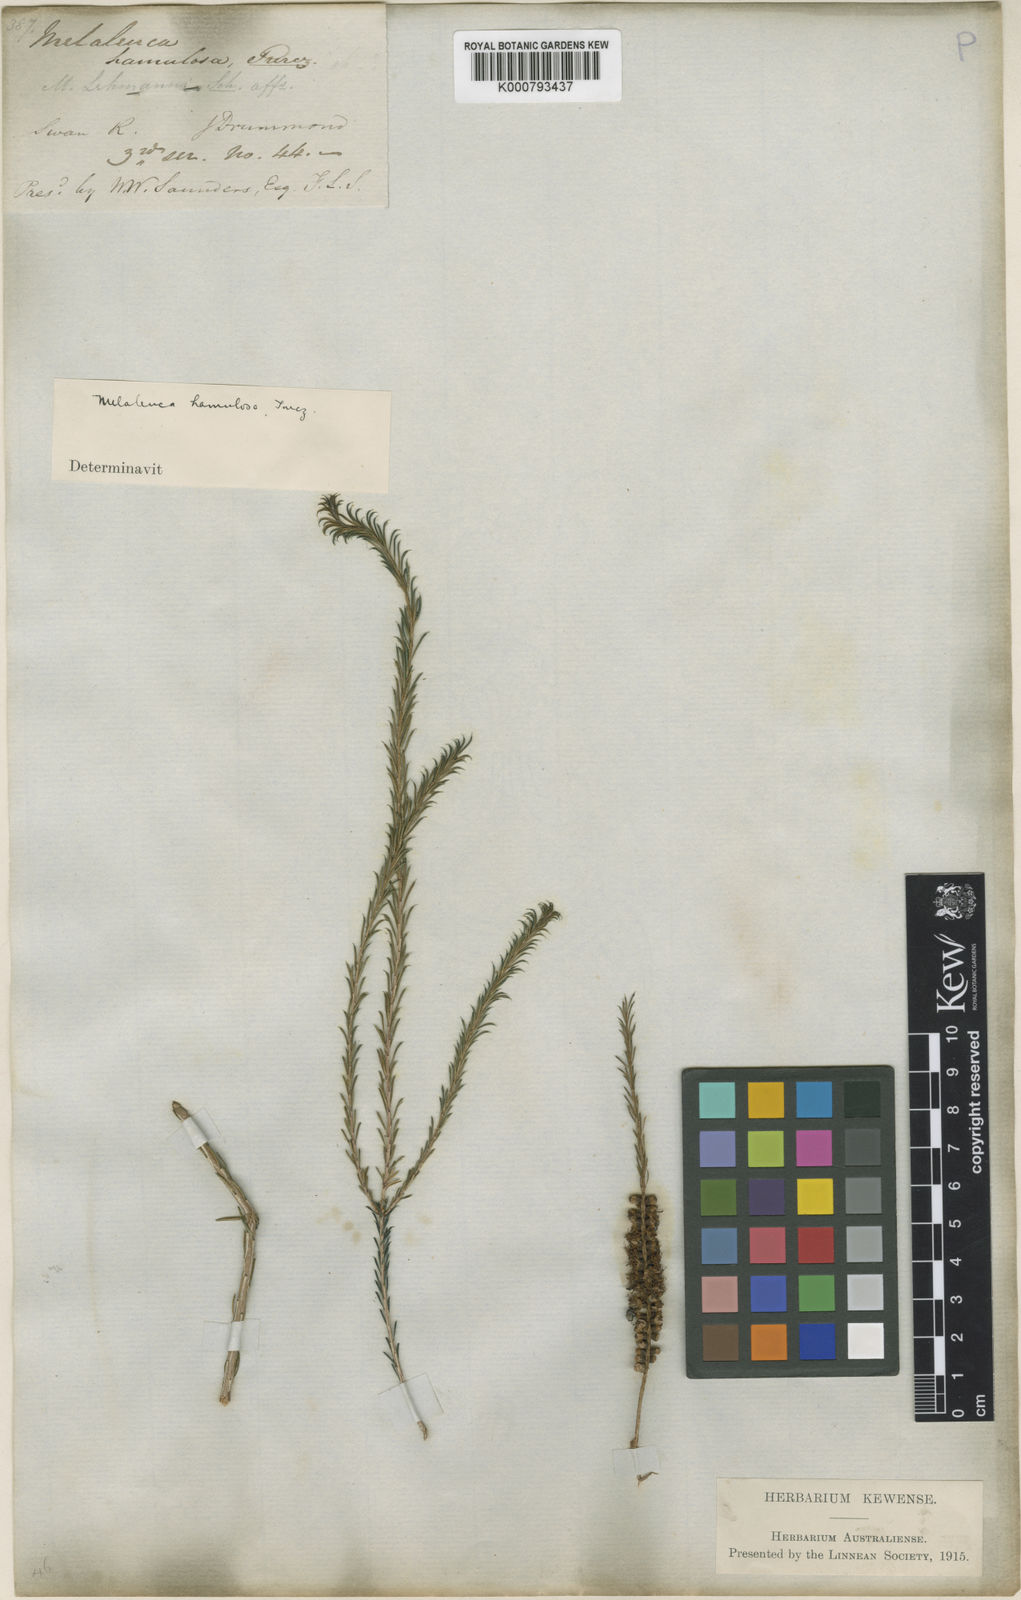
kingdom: Plantae
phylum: Tracheophyta
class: Magnoliopsida
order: Myrtales
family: Myrtaceae
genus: Melaleuca
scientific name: Melaleuca hamulosa
